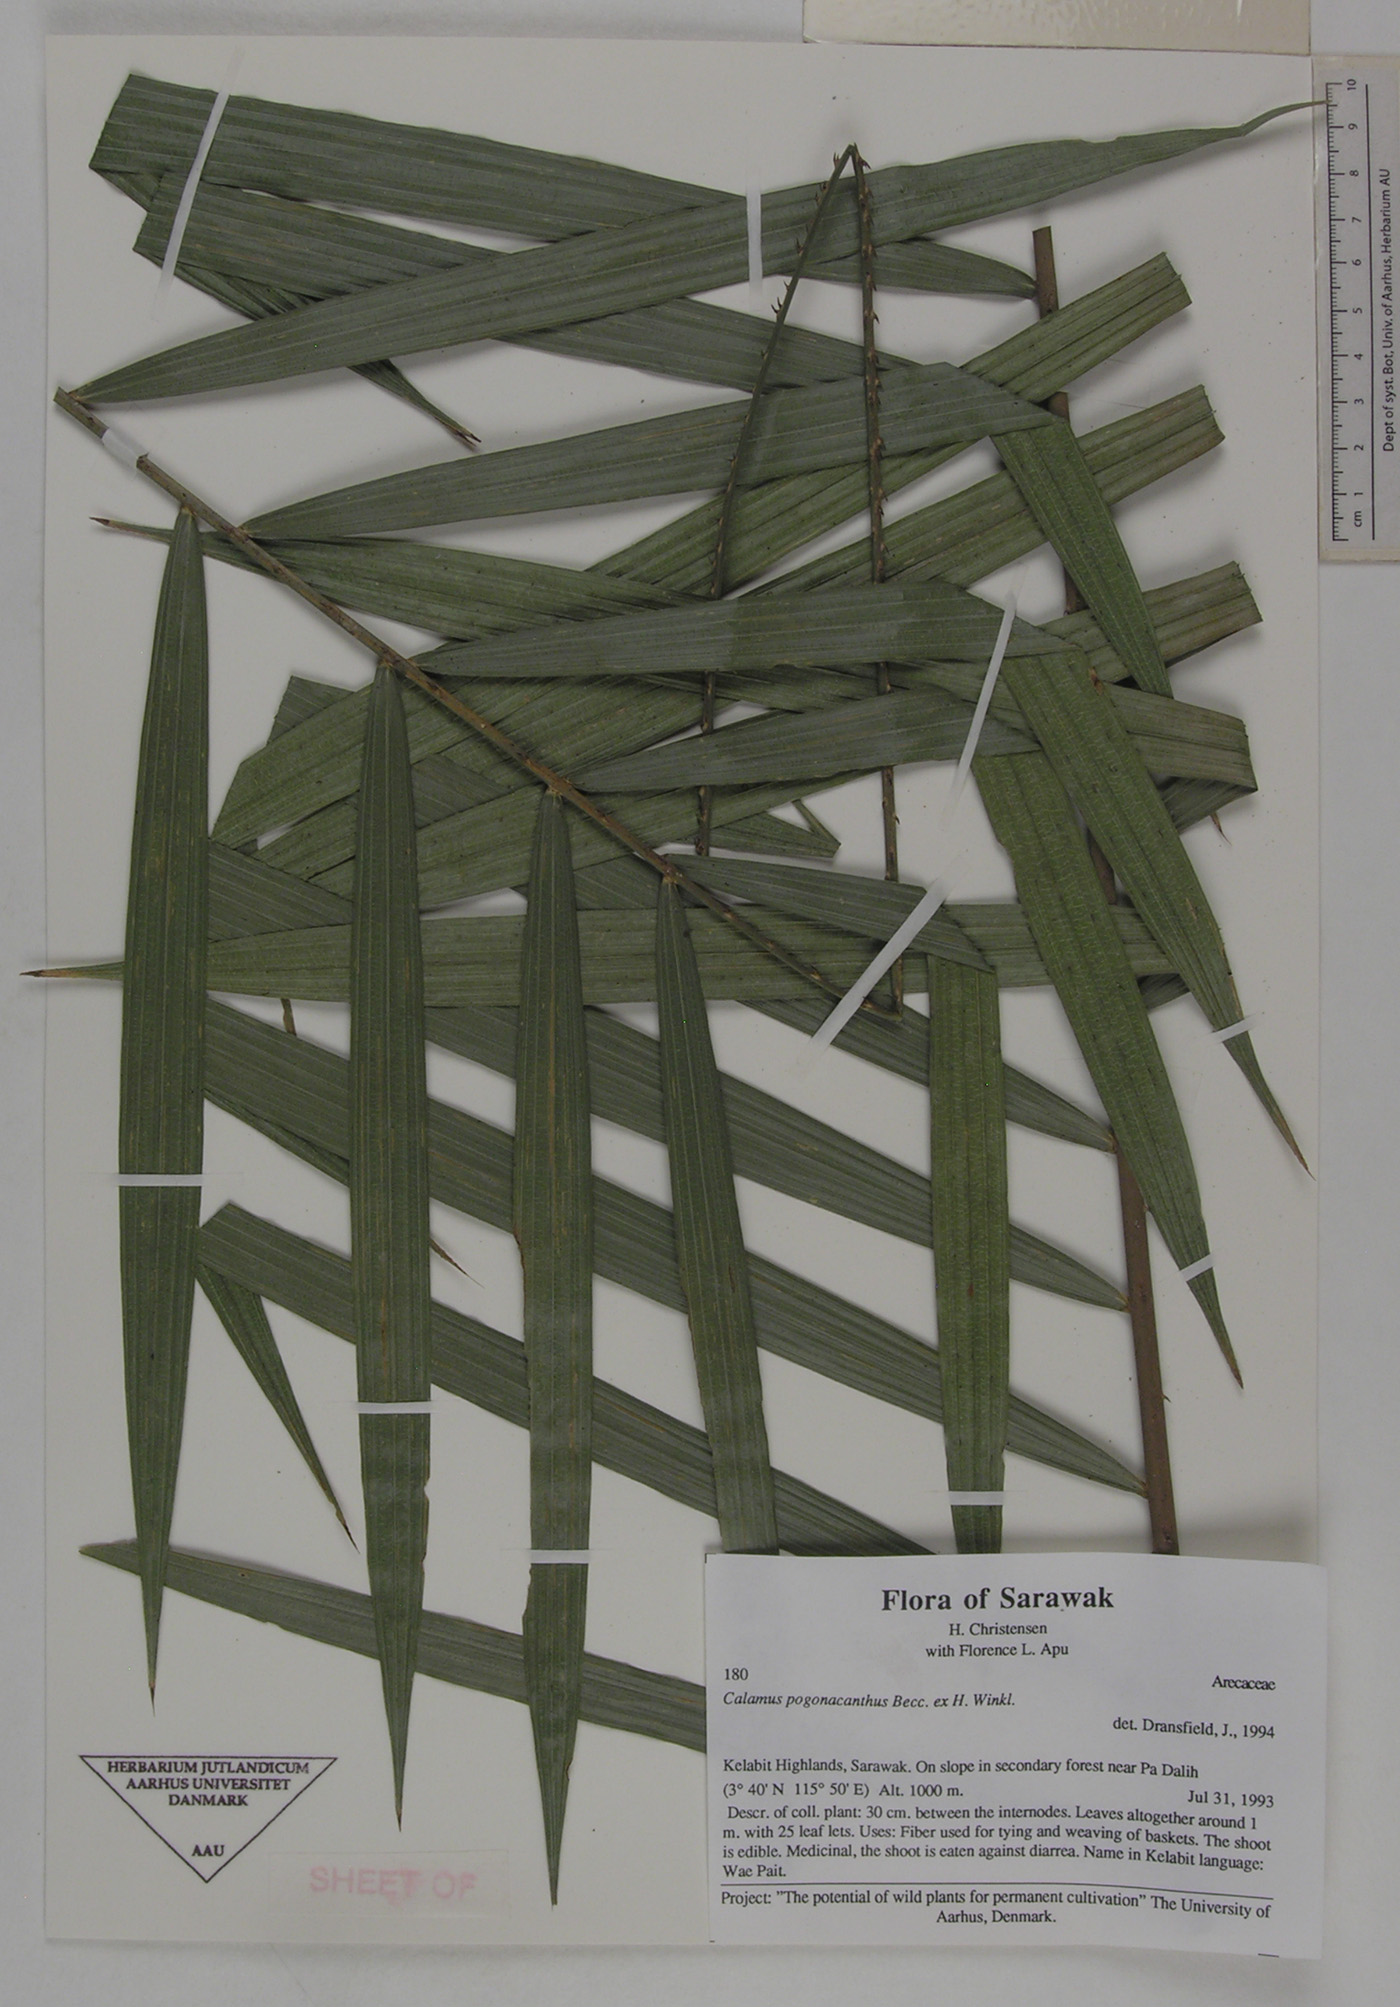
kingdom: Plantae
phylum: Tracheophyta
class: Liliopsida
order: Arecales
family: Arecaceae
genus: Calamus
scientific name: Calamus pogonacanthus
